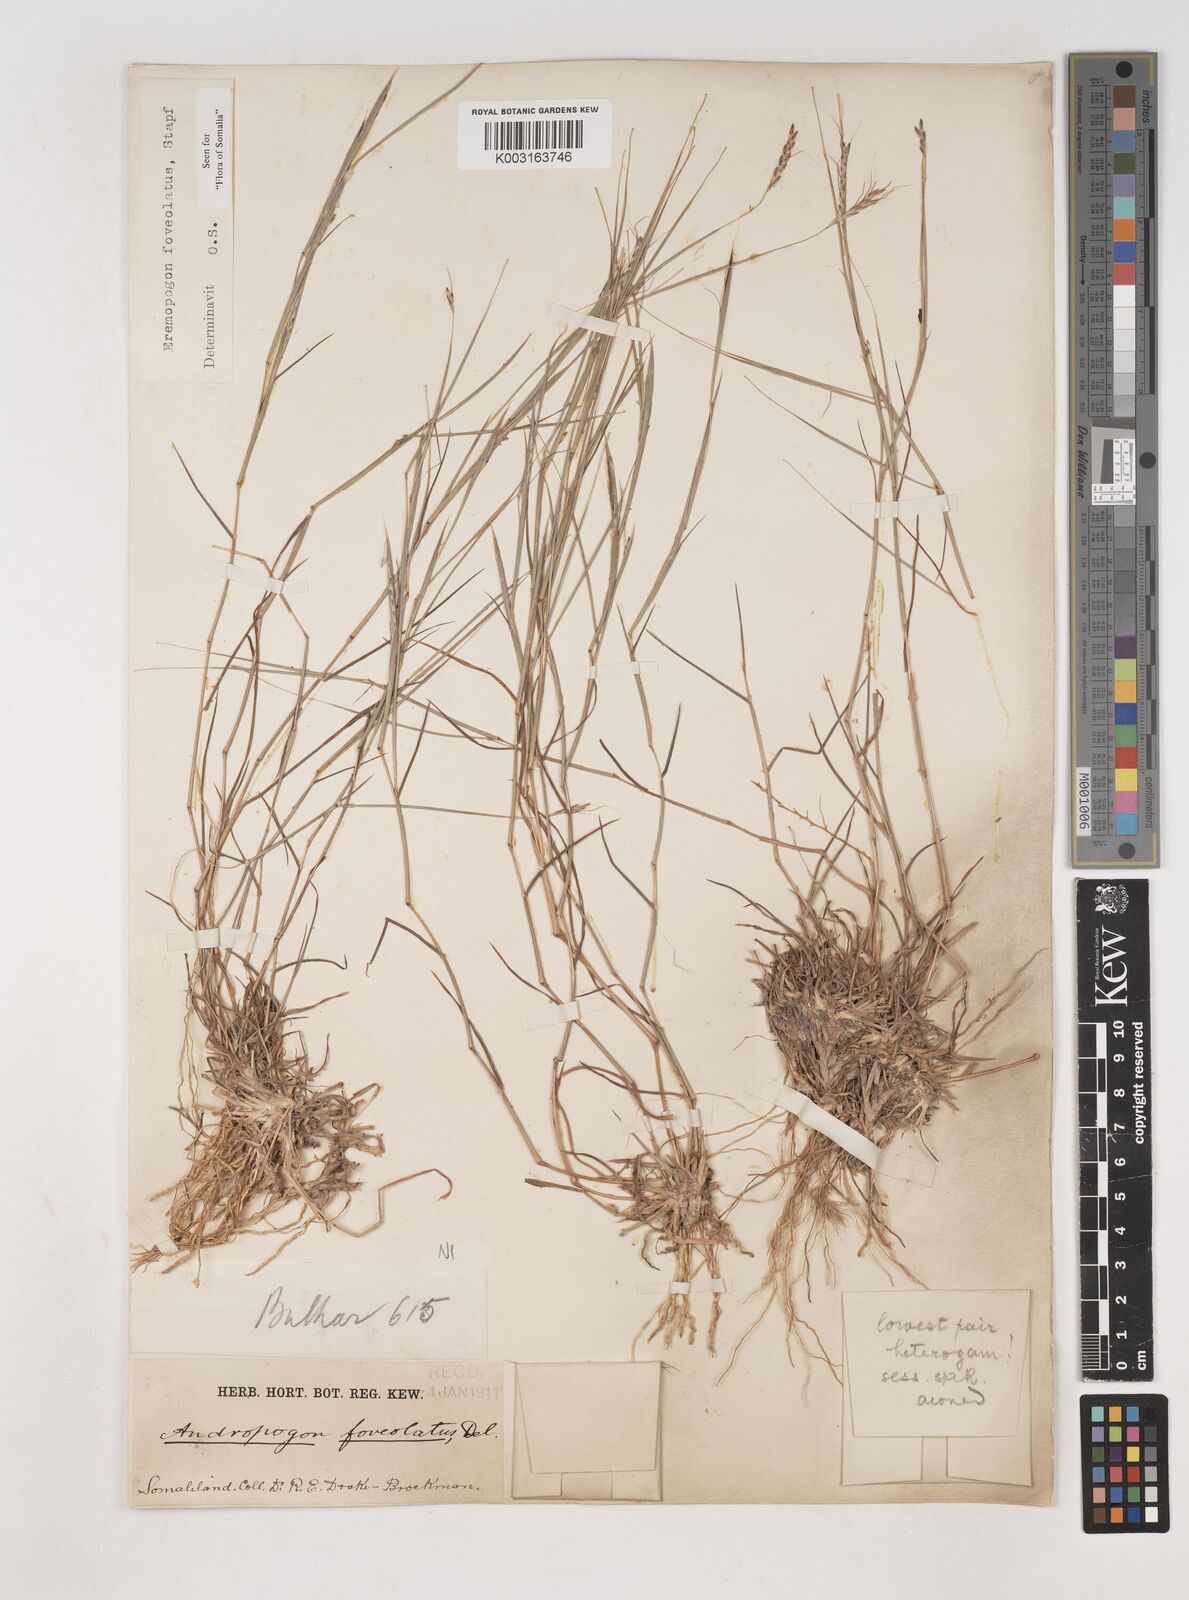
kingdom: Plantae
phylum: Tracheophyta
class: Liliopsida
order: Poales
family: Poaceae
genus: Dichanthium
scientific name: Dichanthium foveolatum
